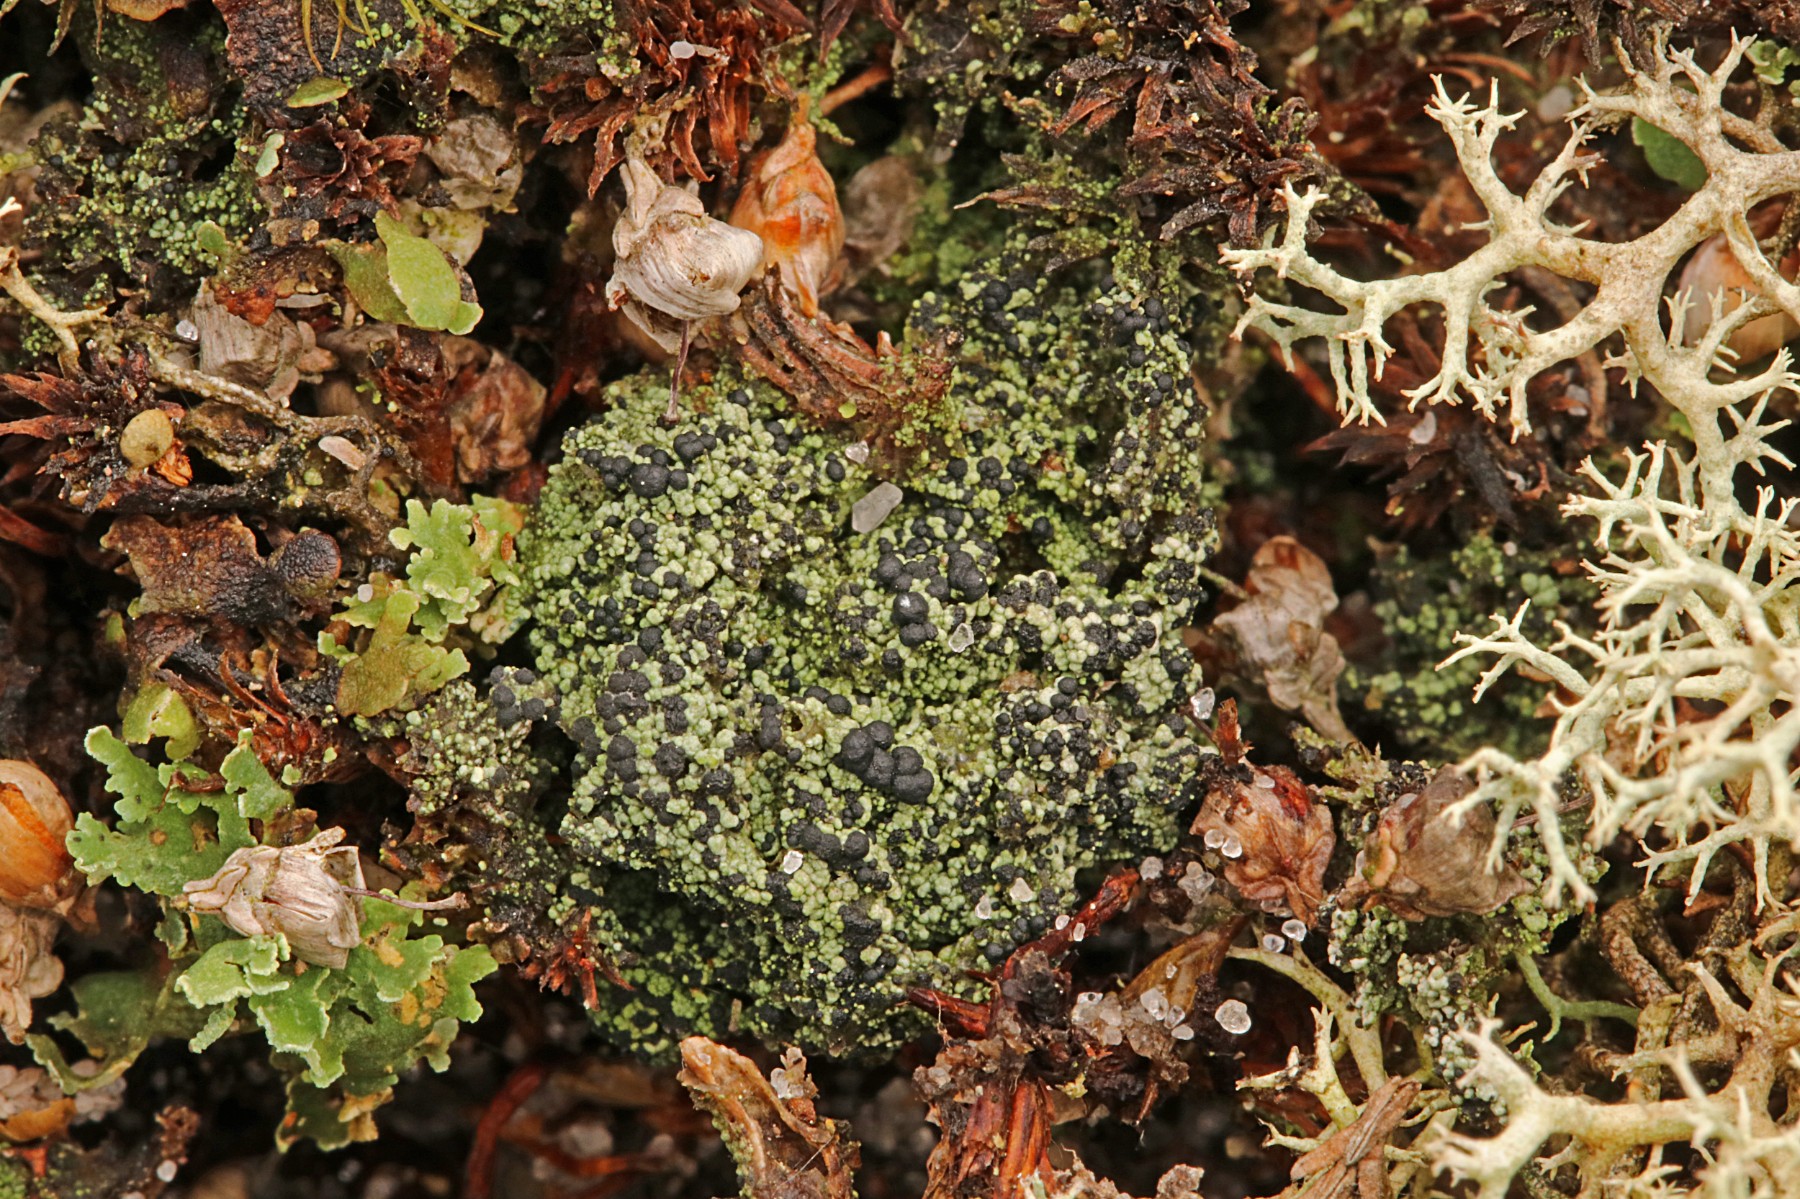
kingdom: Fungi
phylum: Ascomycota
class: Lecanoromycetes
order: Lecanorales
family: Byssolomataceae
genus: Micarea
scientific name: Micarea lignaria
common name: tørve-knaplav
